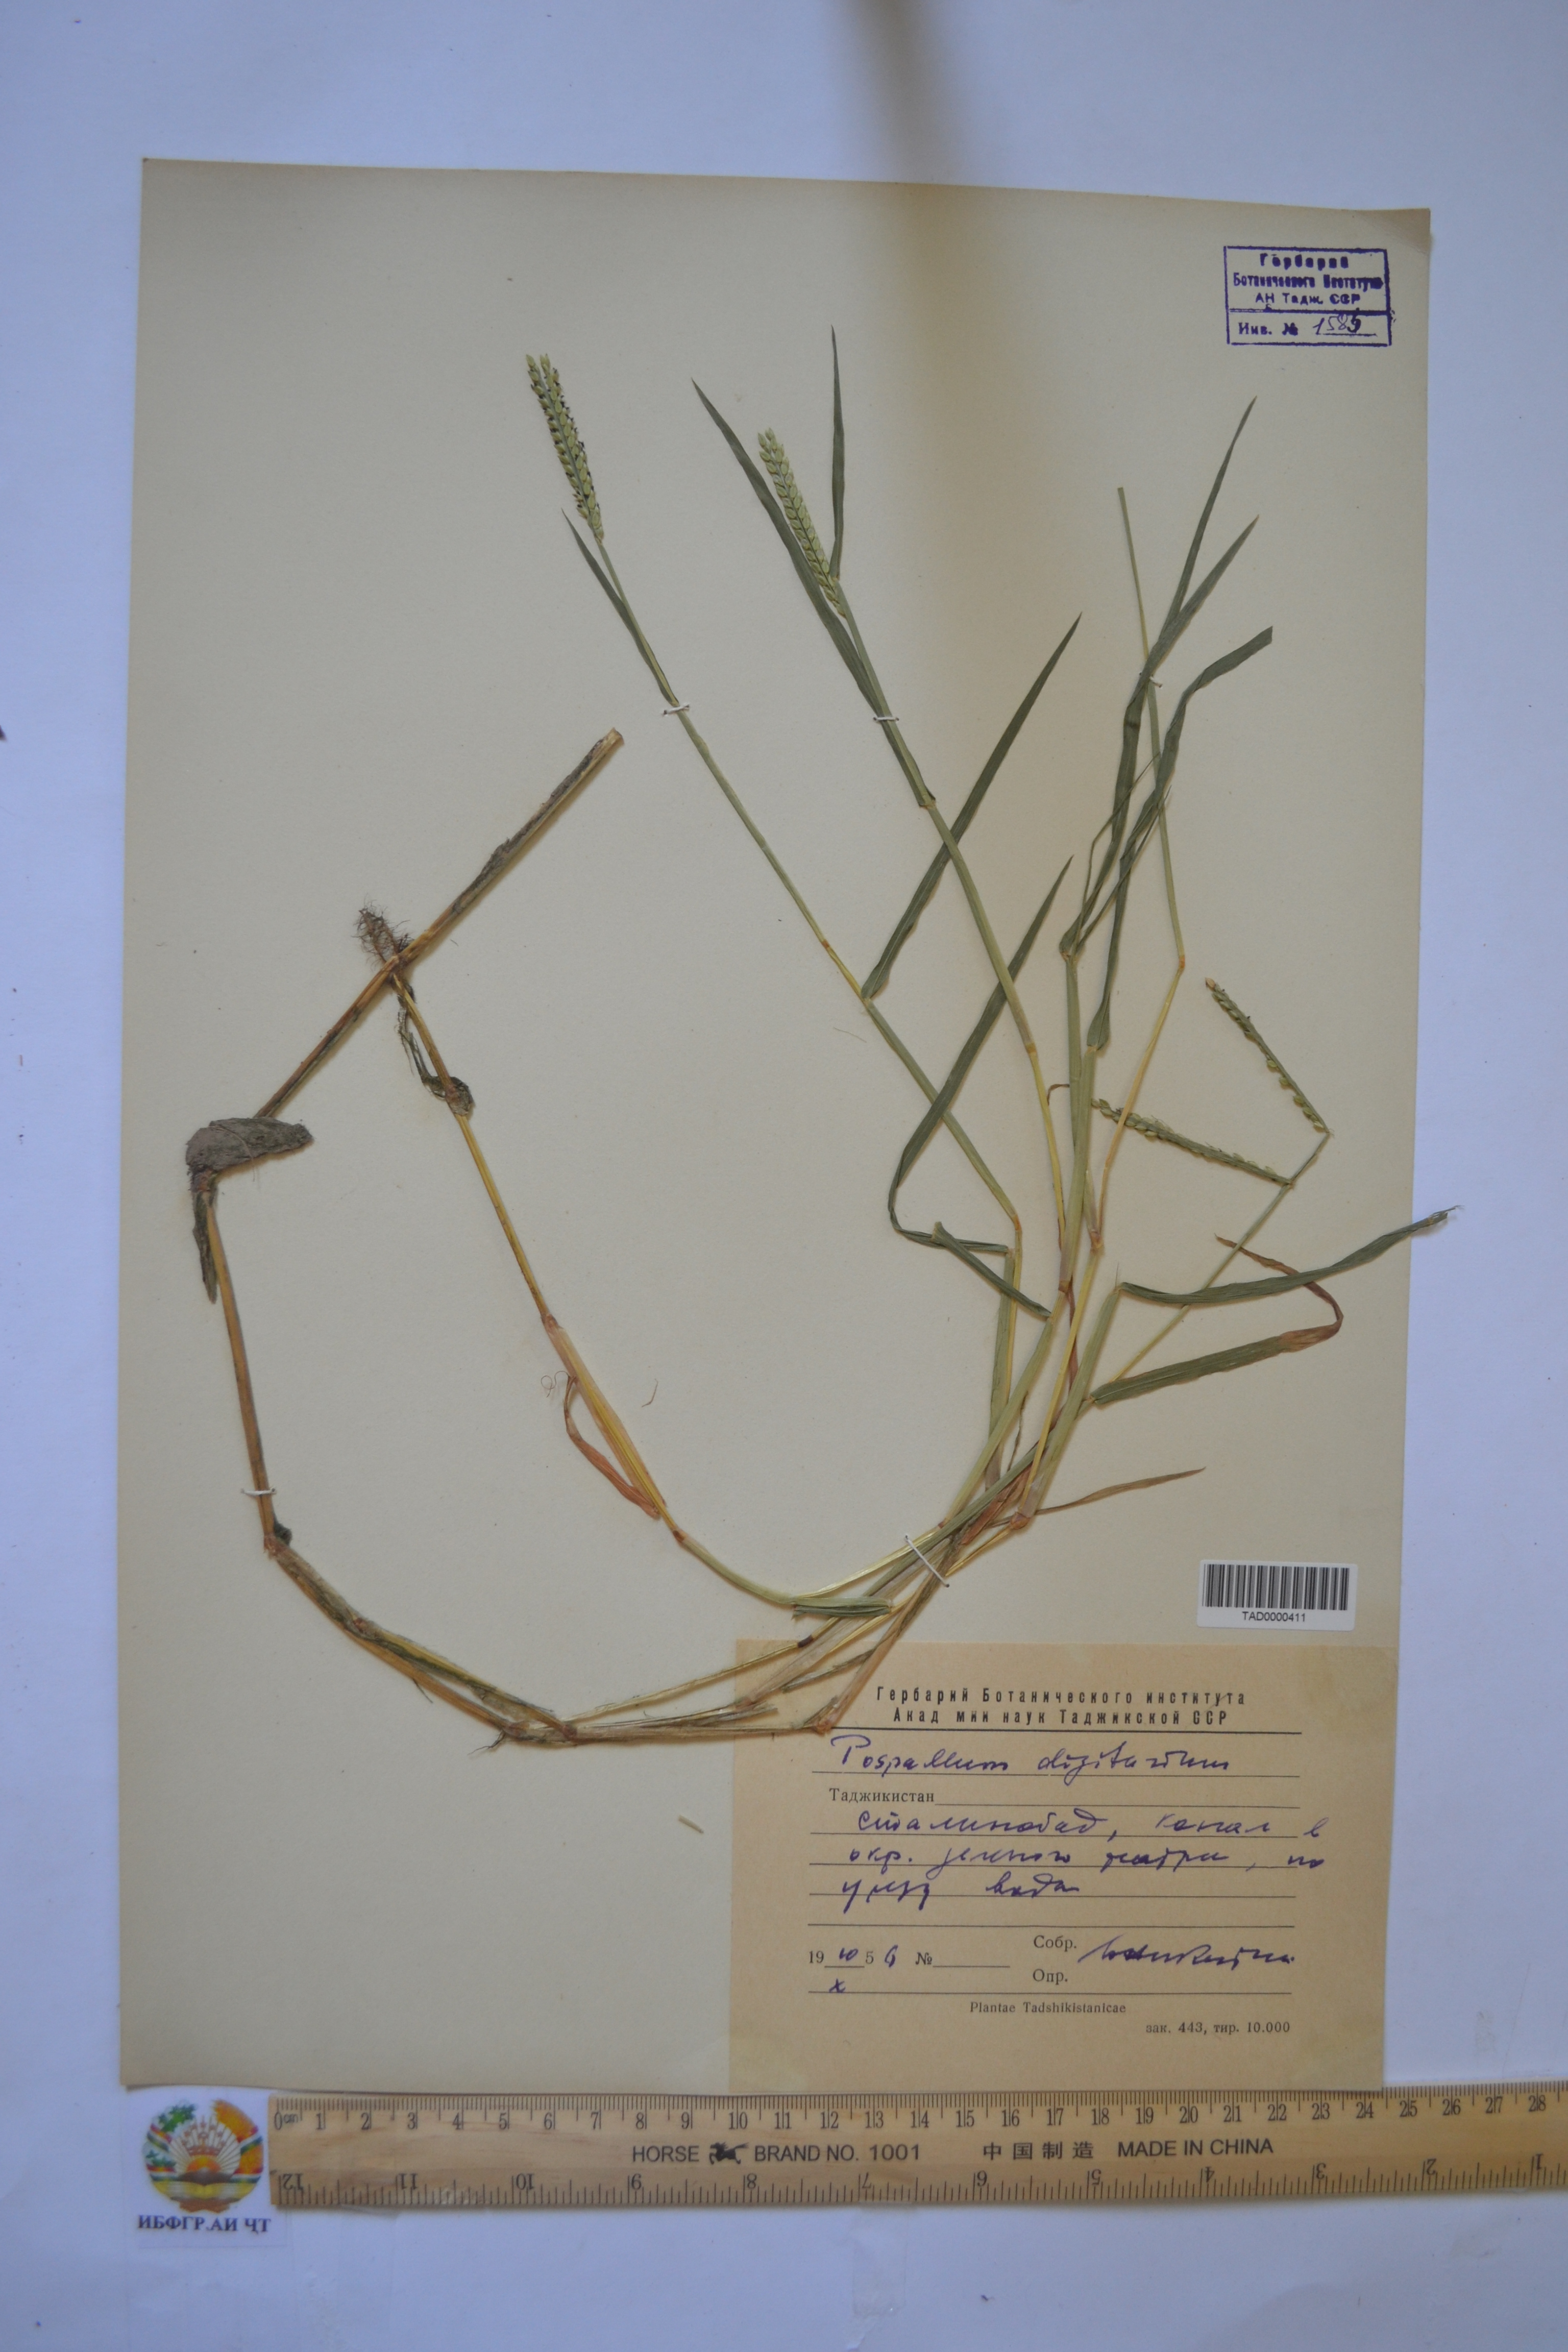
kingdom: Plantae
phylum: Tracheophyta
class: Liliopsida
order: Poales
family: Poaceae
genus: Paspalum
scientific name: Paspalum distichum
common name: Knotgrass
